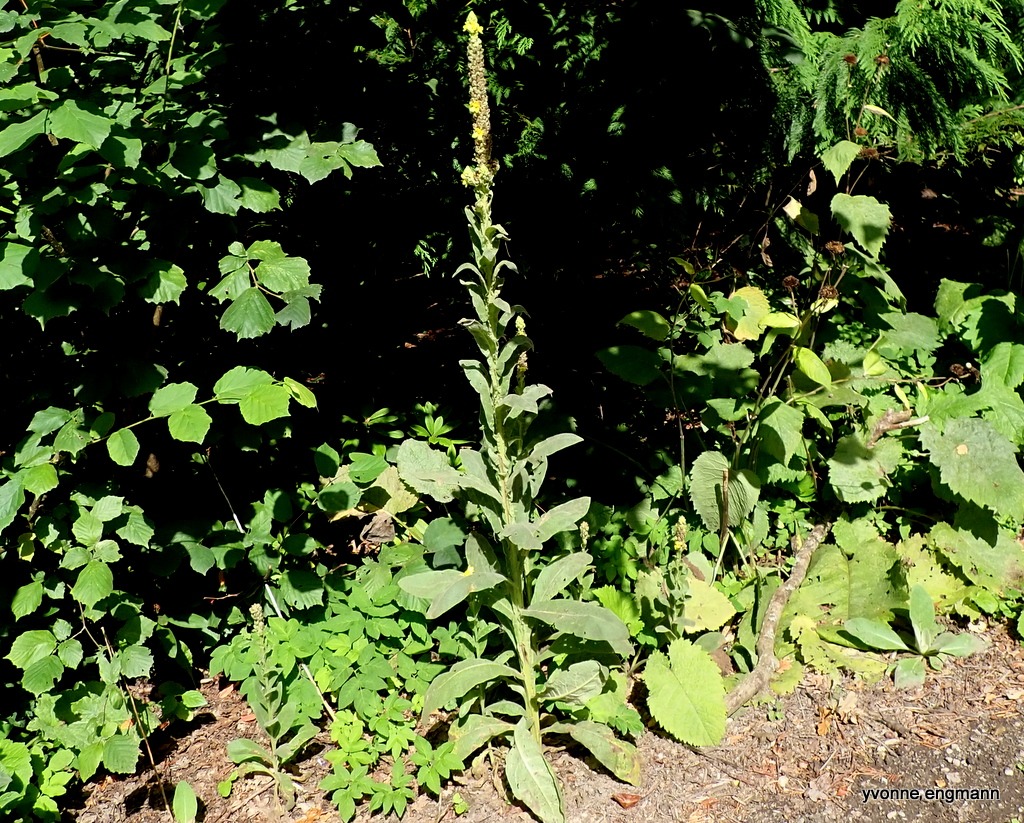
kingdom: Plantae
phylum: Tracheophyta
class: Magnoliopsida
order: Lamiales
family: Scrophulariaceae
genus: Verbascum
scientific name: Verbascum thapsus
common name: Filtbladet kongelys
